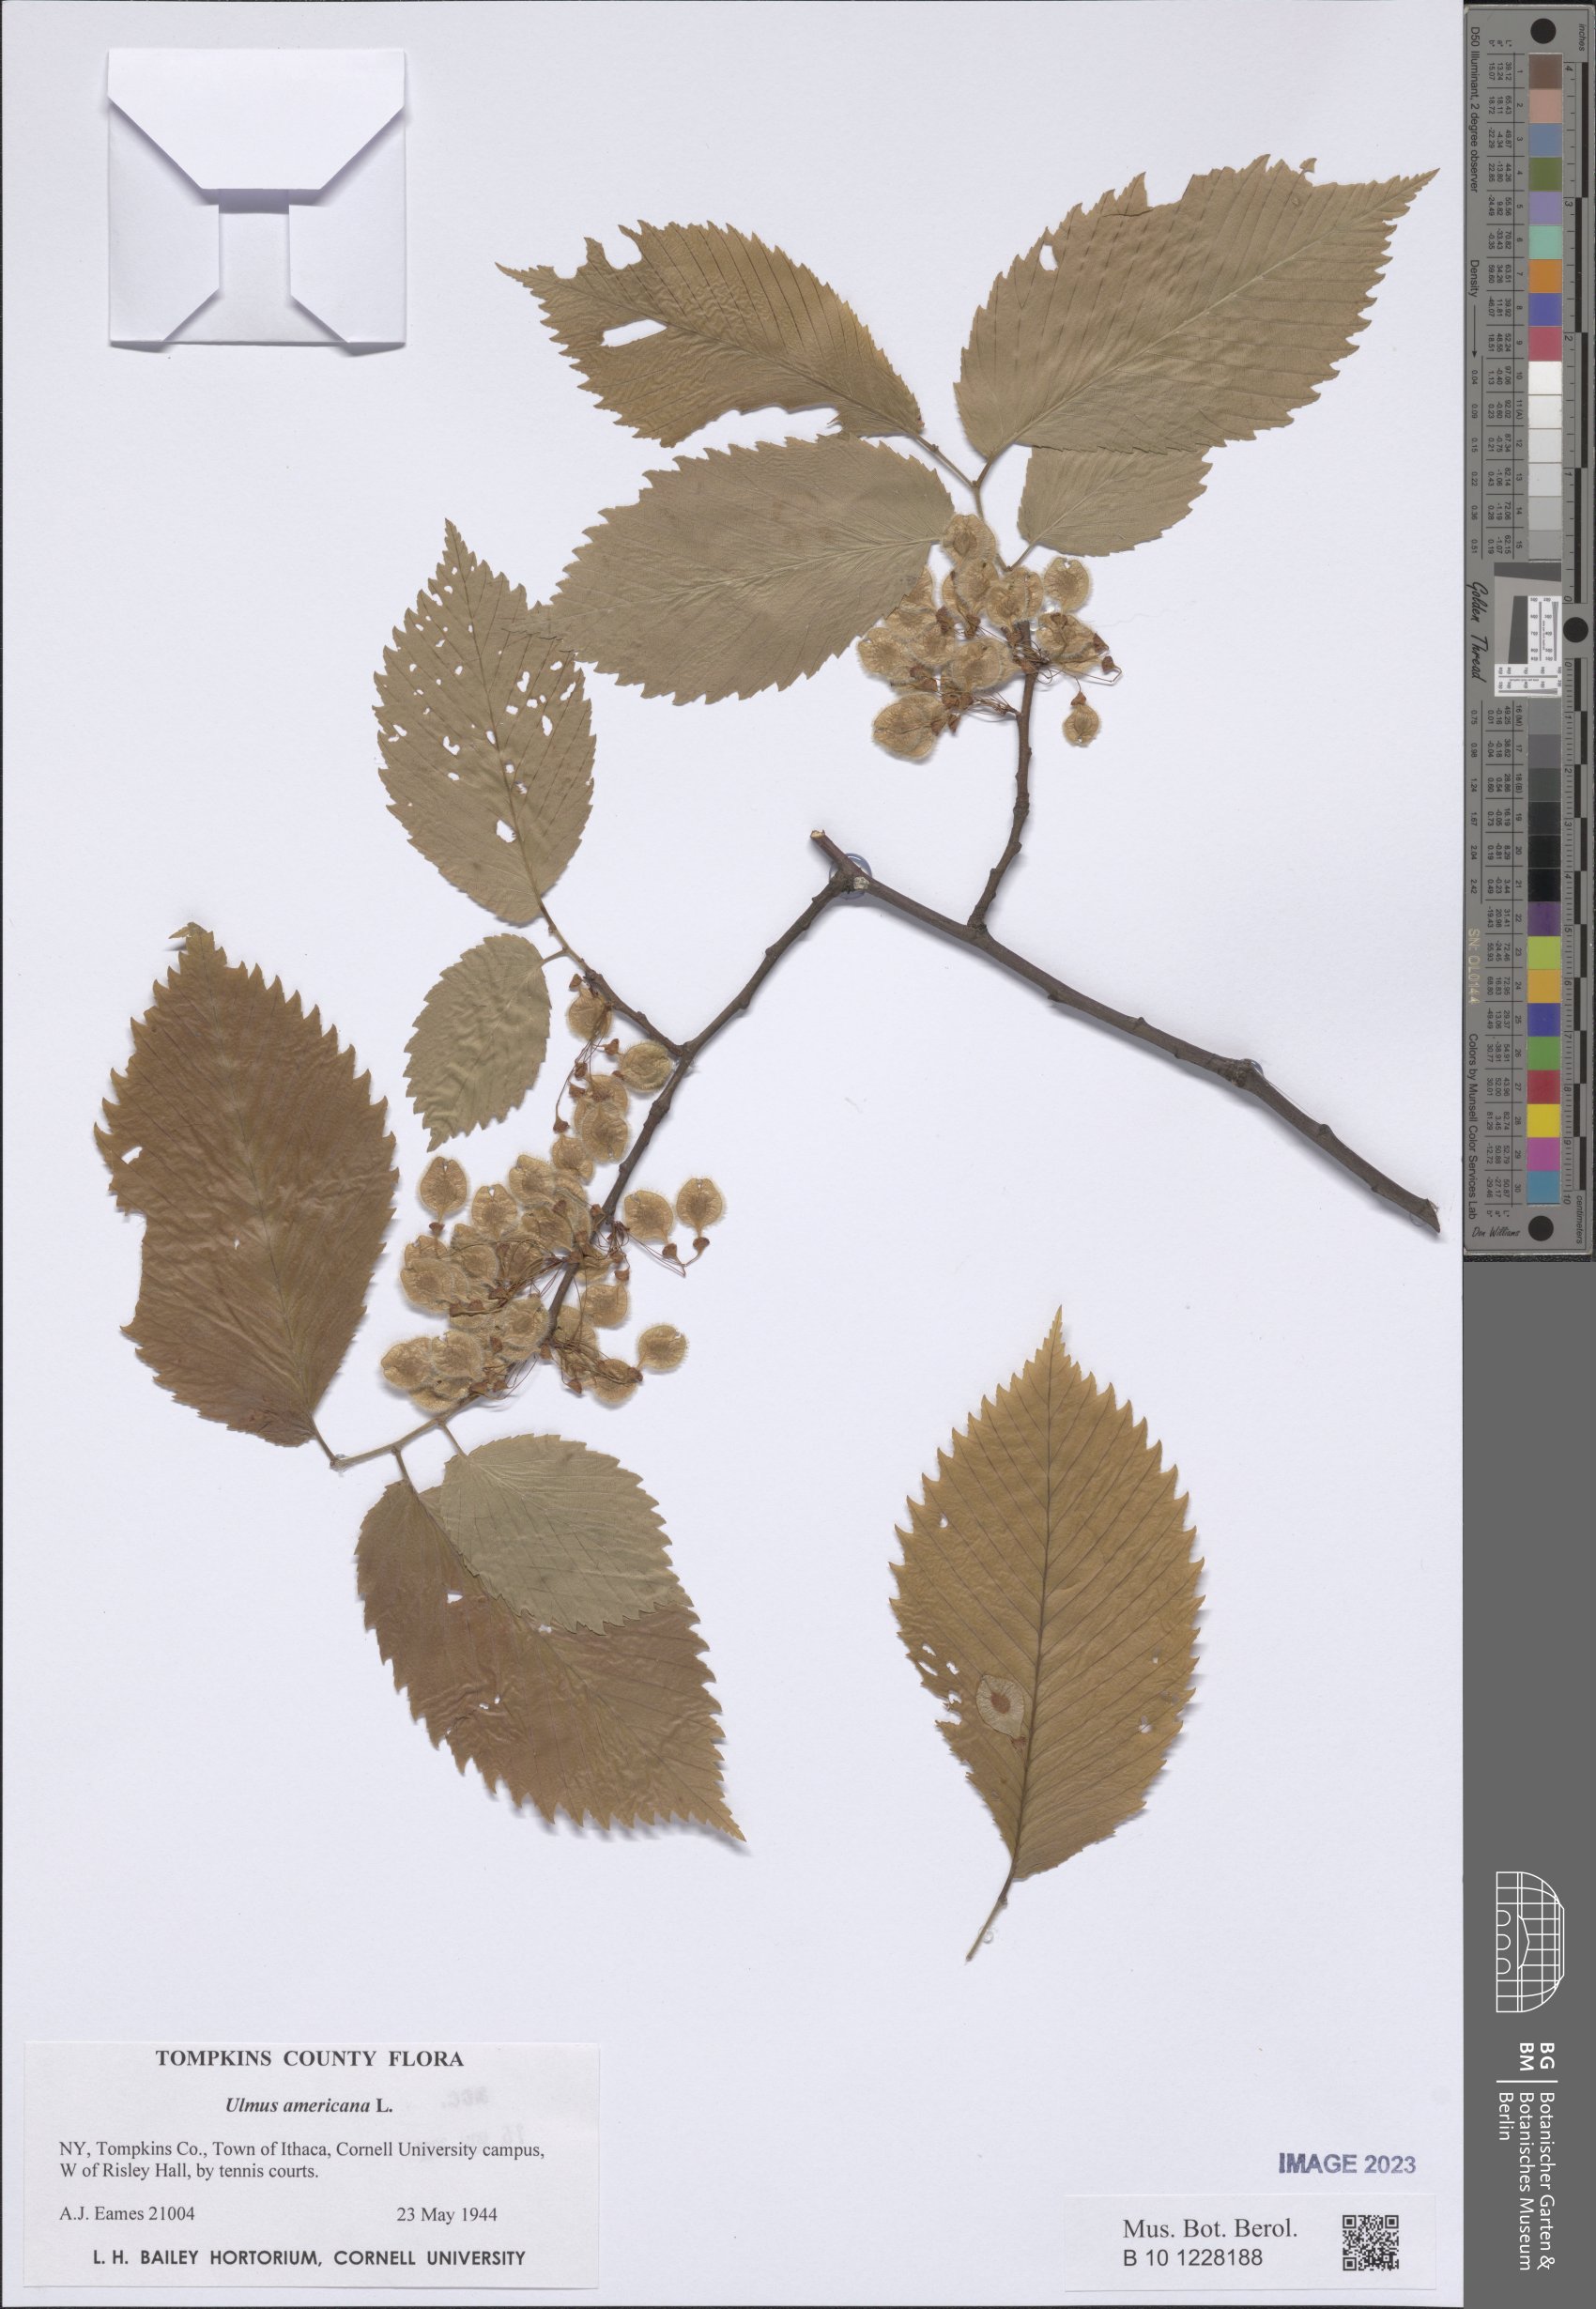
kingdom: Plantae
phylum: Tracheophyta
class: Magnoliopsida
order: Rosales
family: Ulmaceae
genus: Ulmus
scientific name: Ulmus americana
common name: American elm
